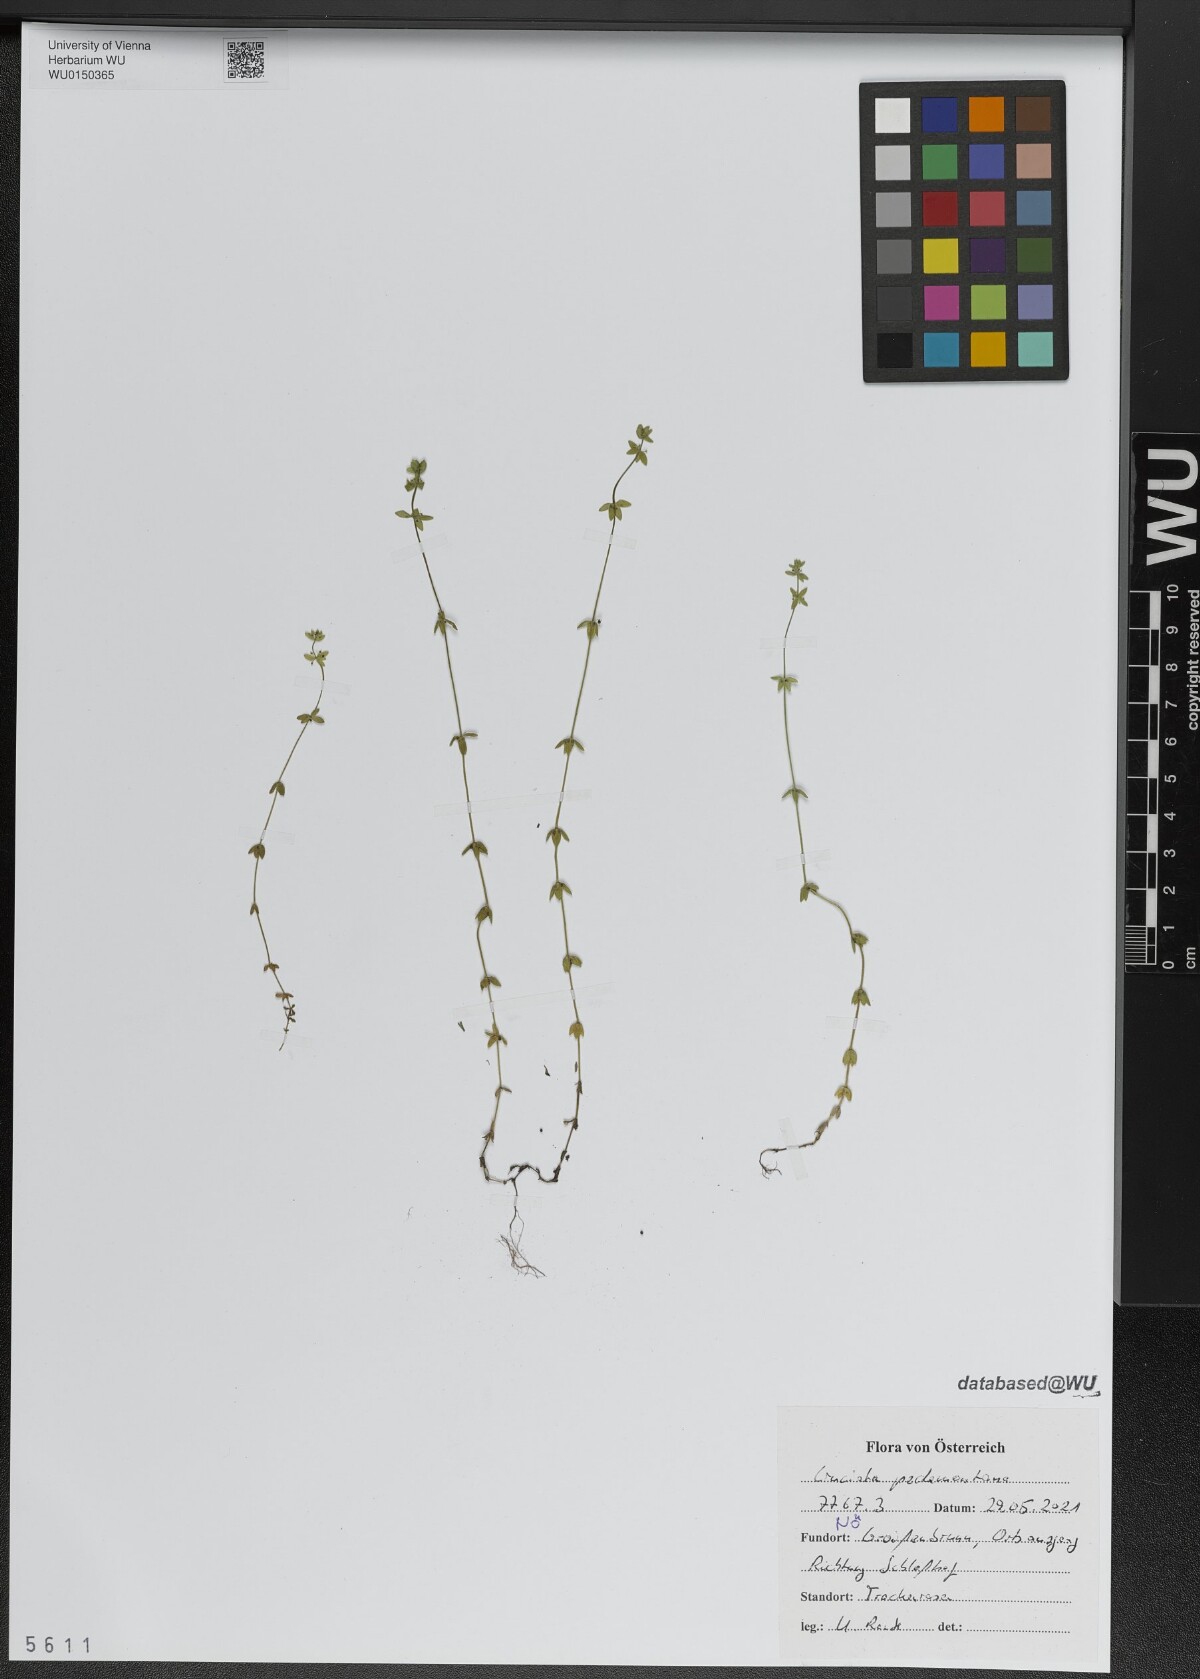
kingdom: Plantae
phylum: Tracheophyta
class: Magnoliopsida
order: Gentianales
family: Rubiaceae
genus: Cruciata
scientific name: Cruciata pedemontana
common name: Piedmont bedstraw
